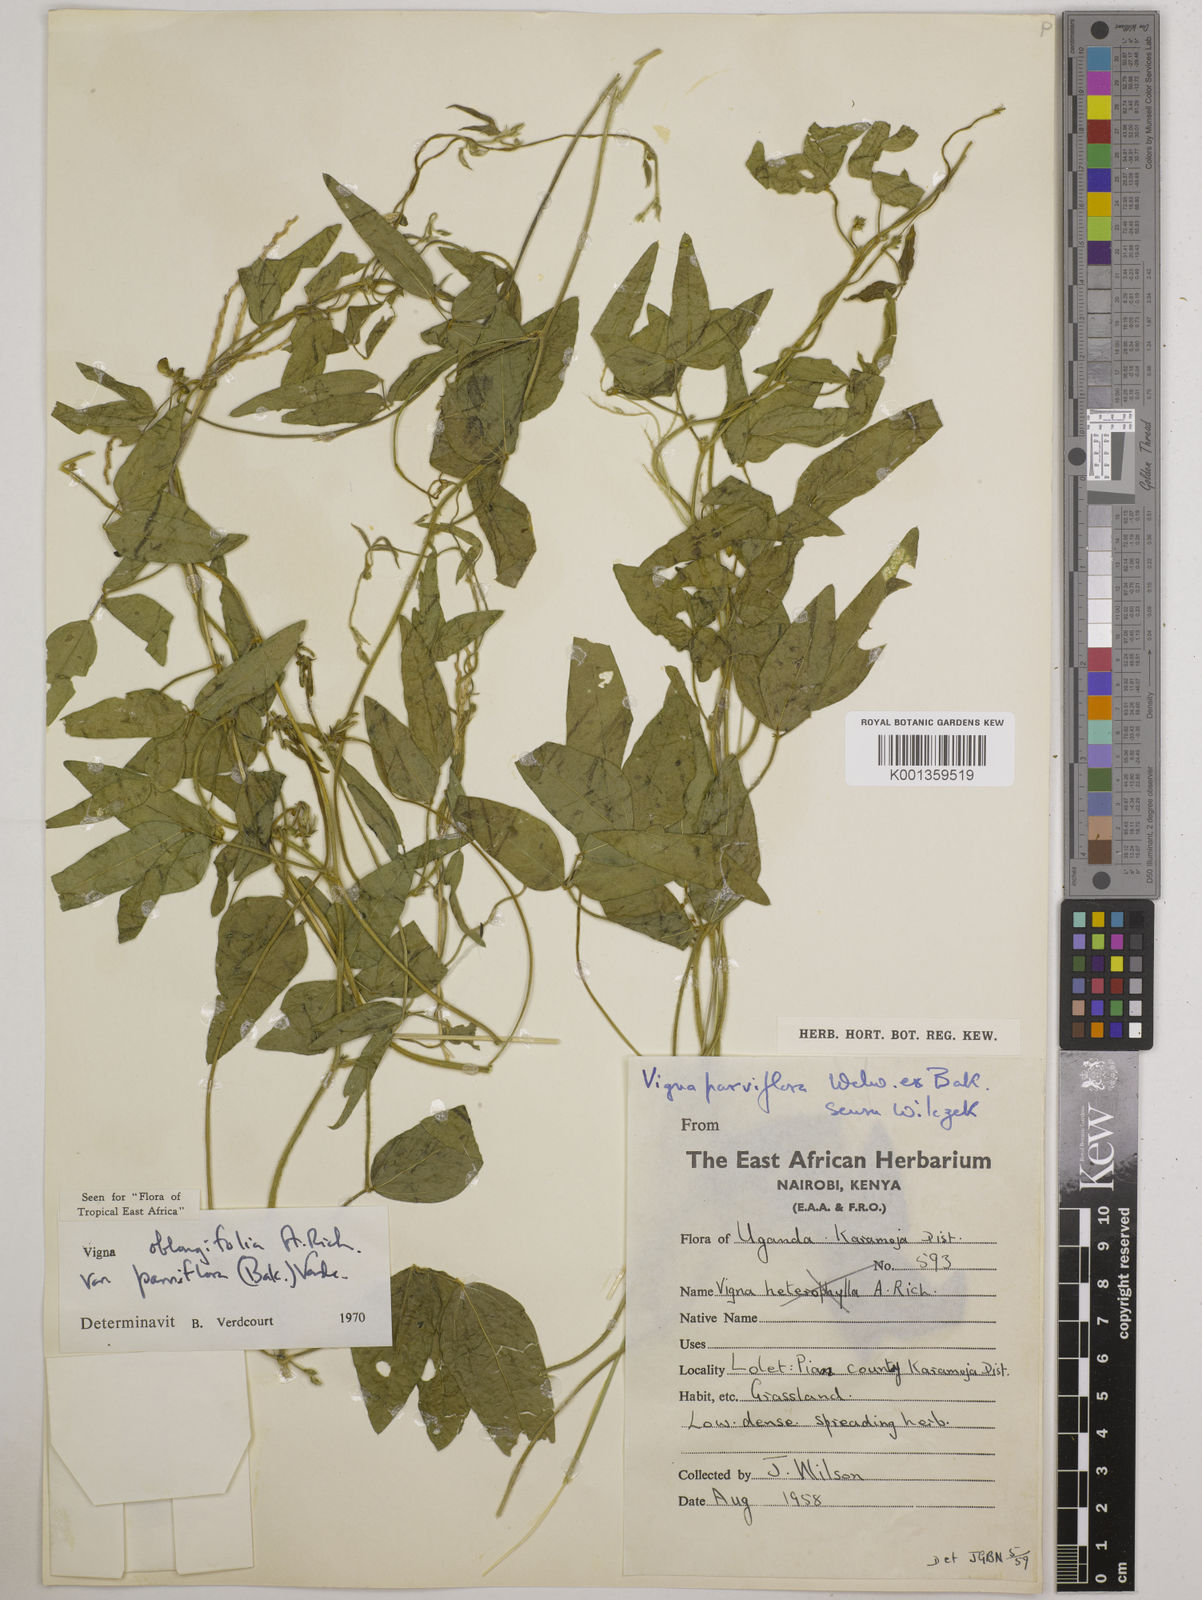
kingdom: Plantae
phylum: Tracheophyta
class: Magnoliopsida
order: Fabales
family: Fabaceae
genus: Vigna
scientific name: Vigna
